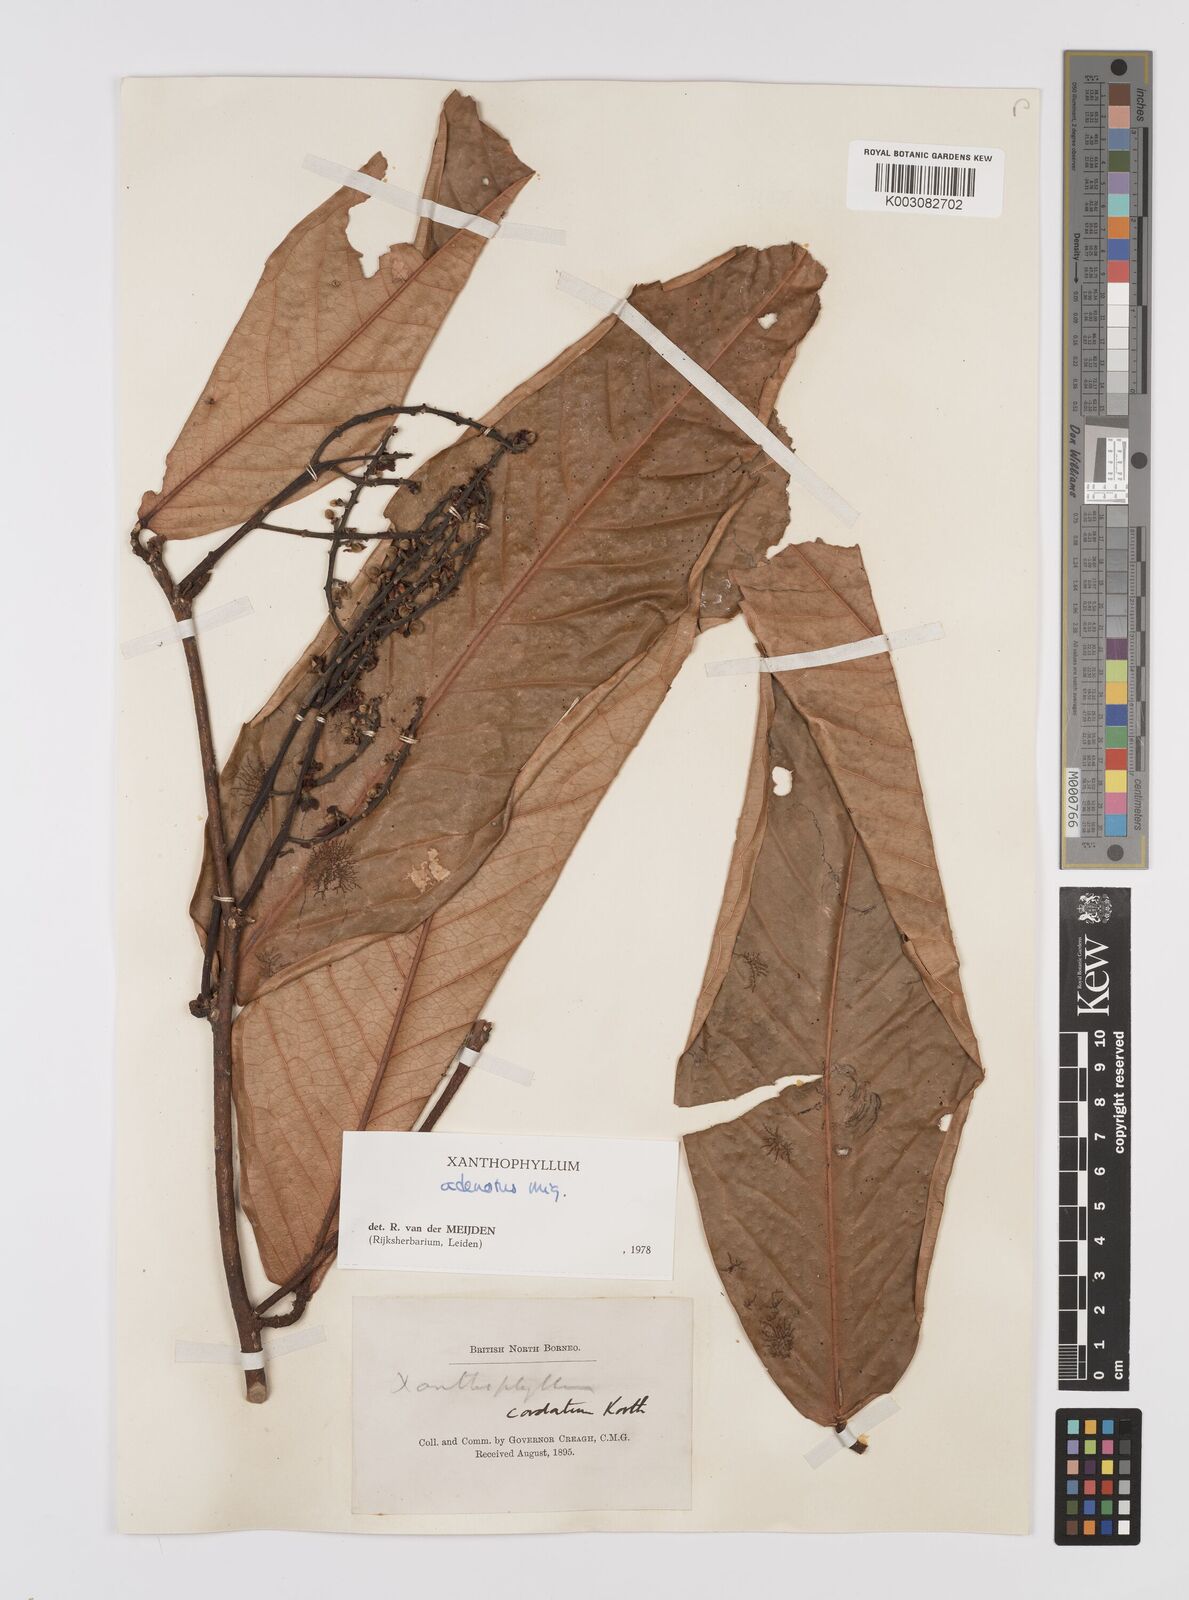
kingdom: Plantae
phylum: Tracheophyta
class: Magnoliopsida
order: Fabales
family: Polygalaceae
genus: Xanthophyllum
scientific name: Xanthophyllum adenotus
